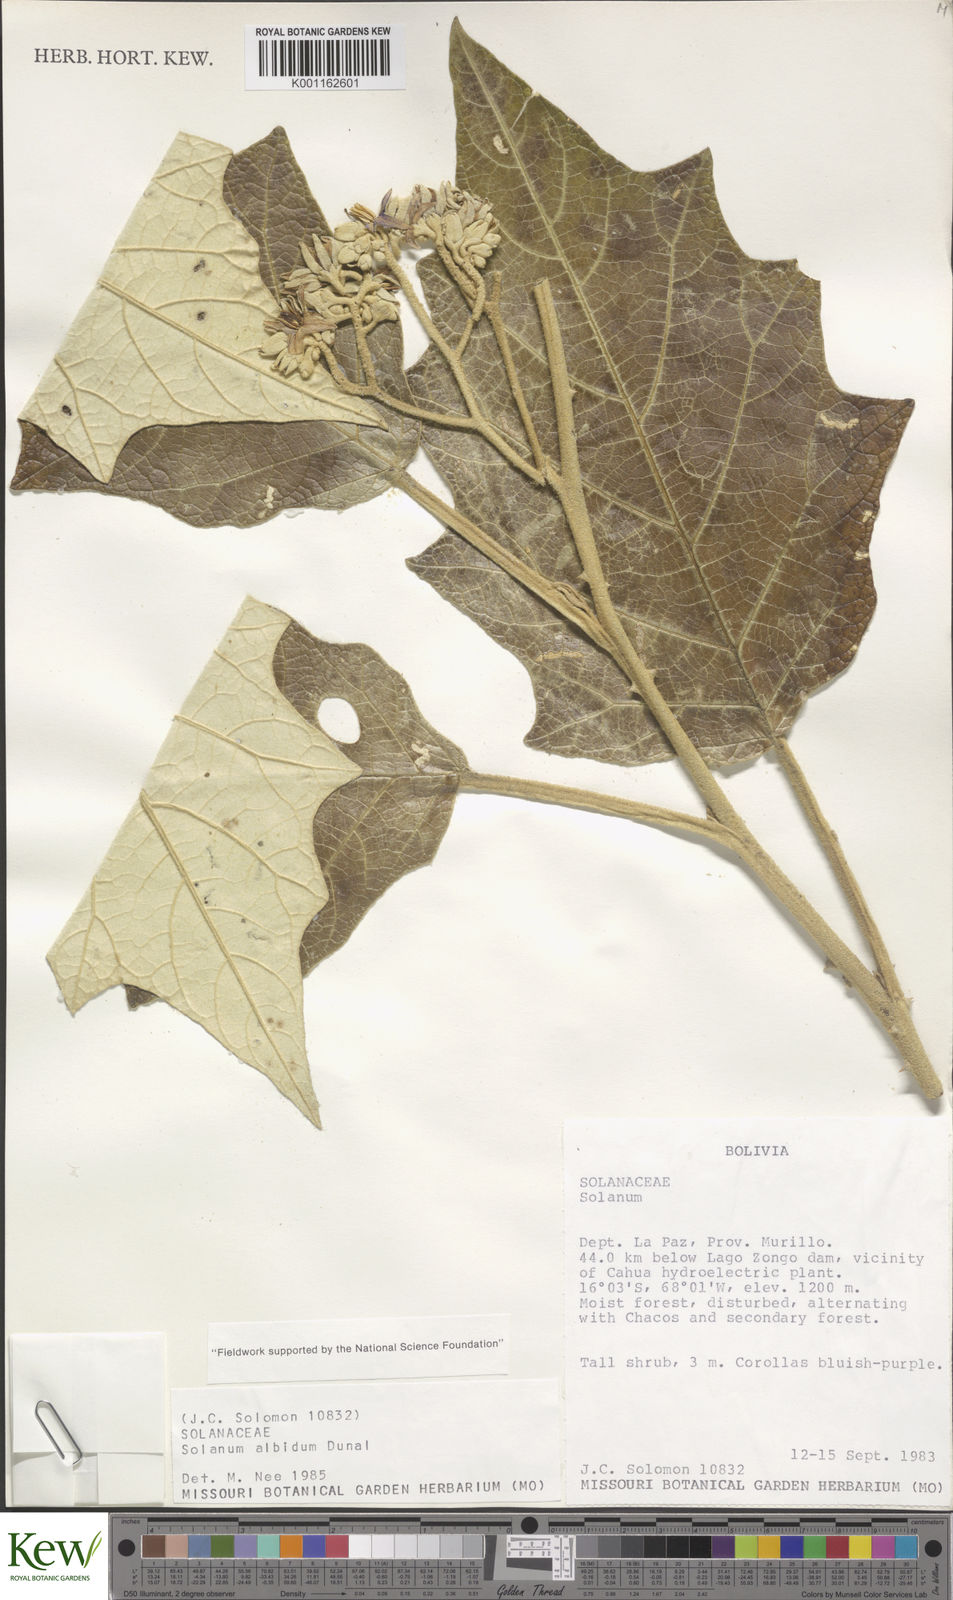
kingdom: Plantae
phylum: Tracheophyta
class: Magnoliopsida
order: Solanales
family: Solanaceae
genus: Solanum
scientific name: Solanum albidum
